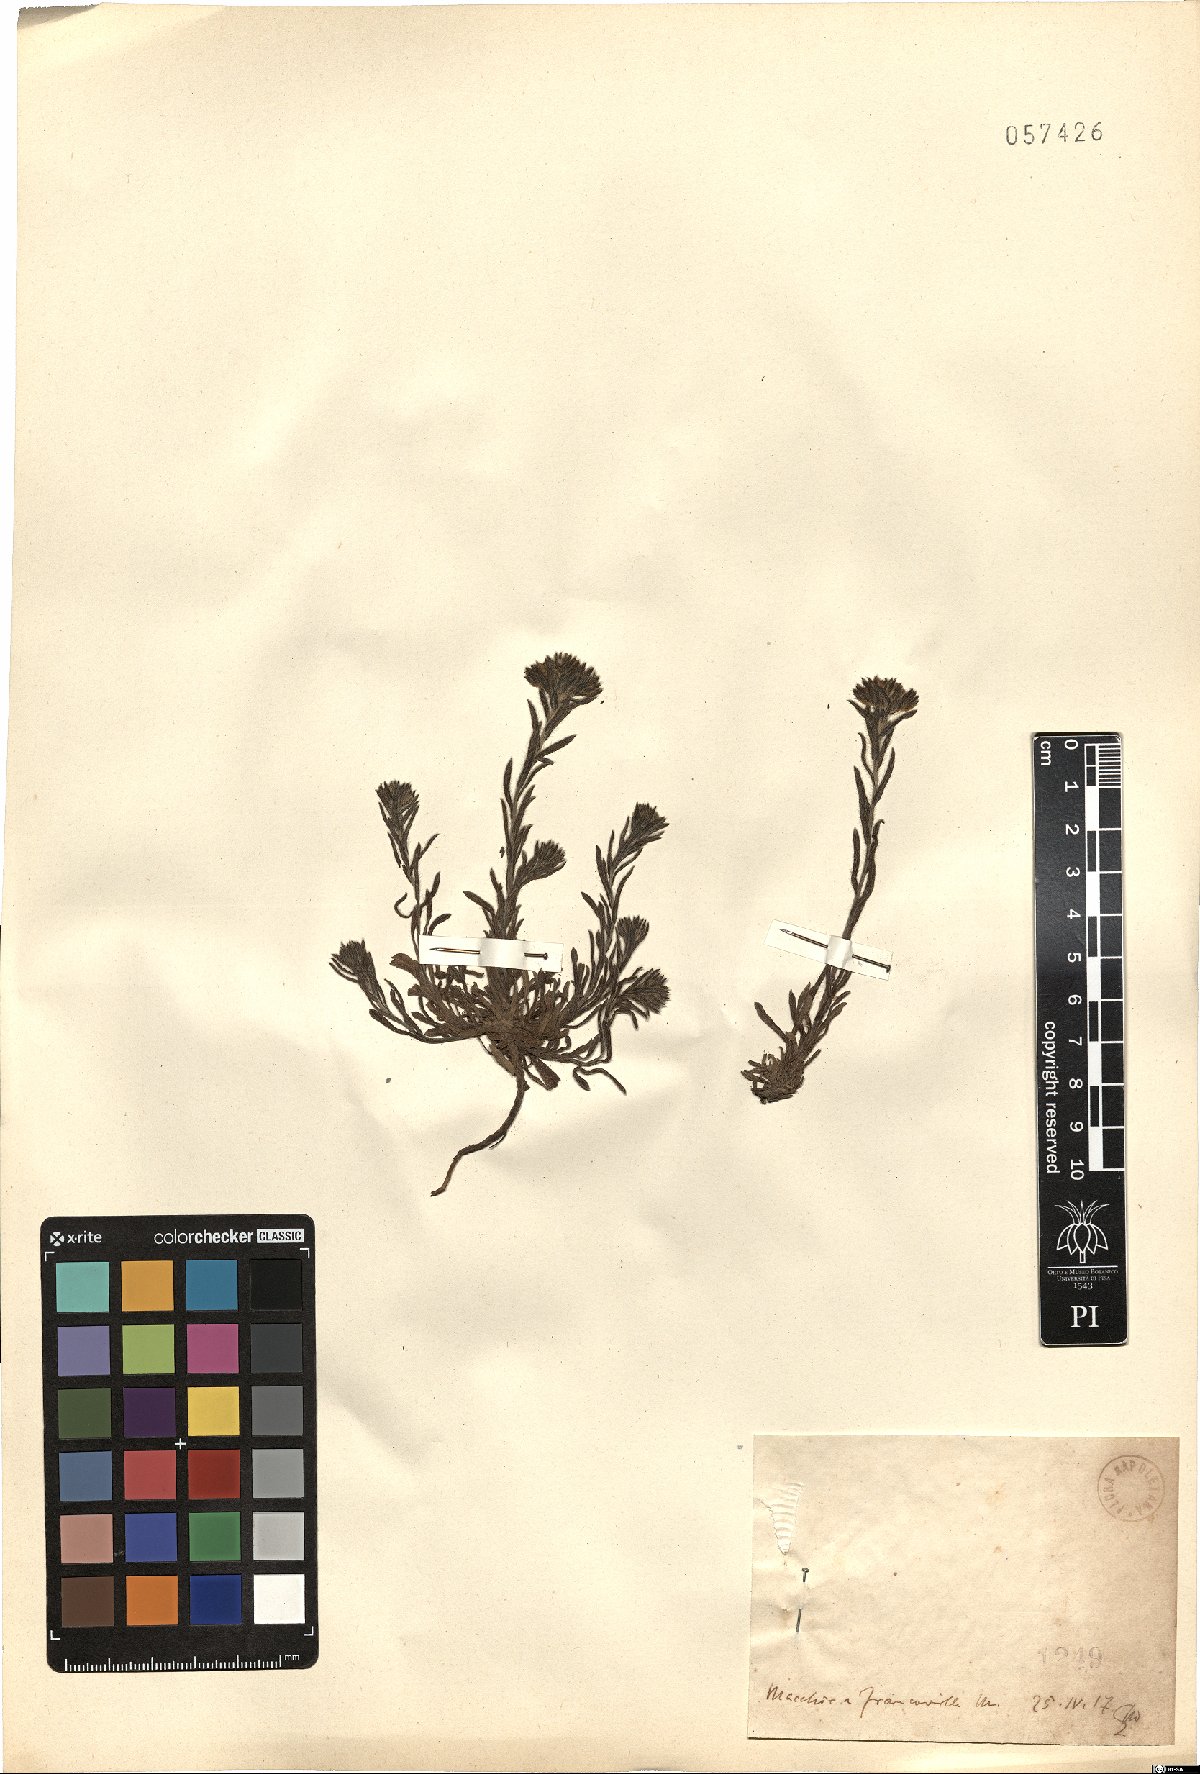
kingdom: Plantae
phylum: Tracheophyta
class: Magnoliopsida
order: Boraginales
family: Boraginaceae
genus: Lithospermum
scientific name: Lithospermum
